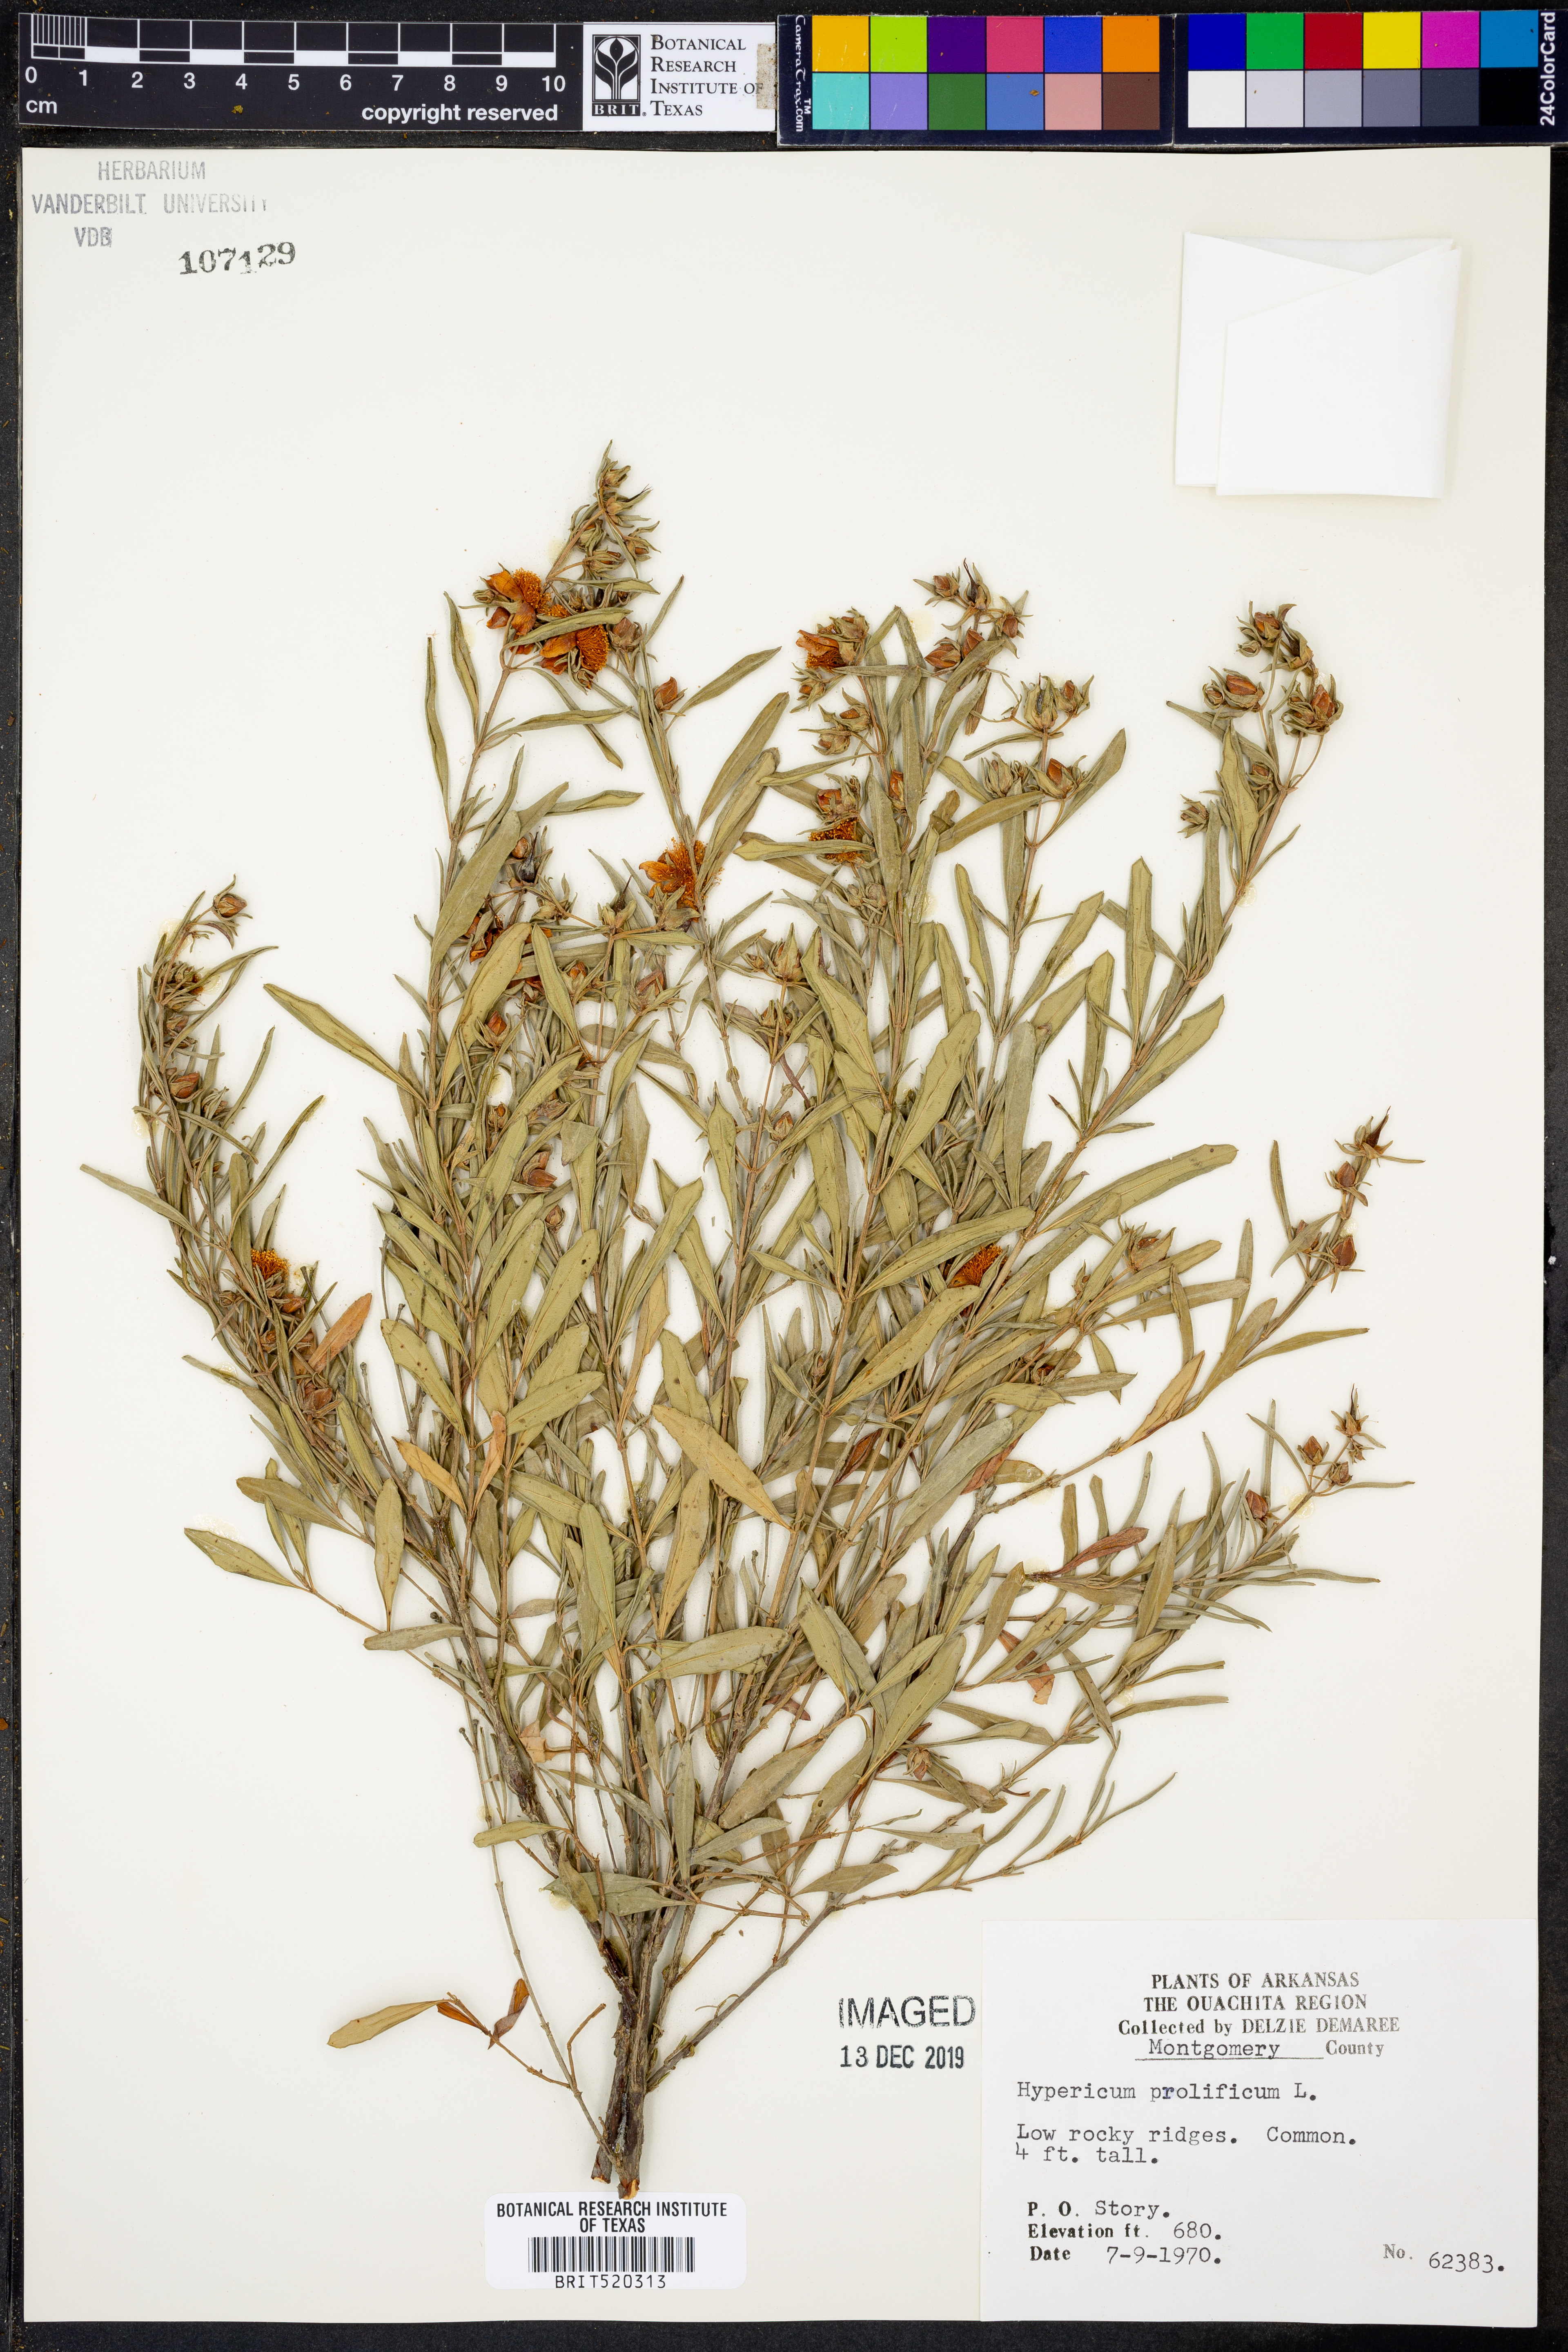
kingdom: Plantae
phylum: Tracheophyta
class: Magnoliopsida
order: Malpighiales
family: Hypericaceae
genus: Hypericum
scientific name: Hypericum prolificum
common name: Shrubby st. john's-wort
